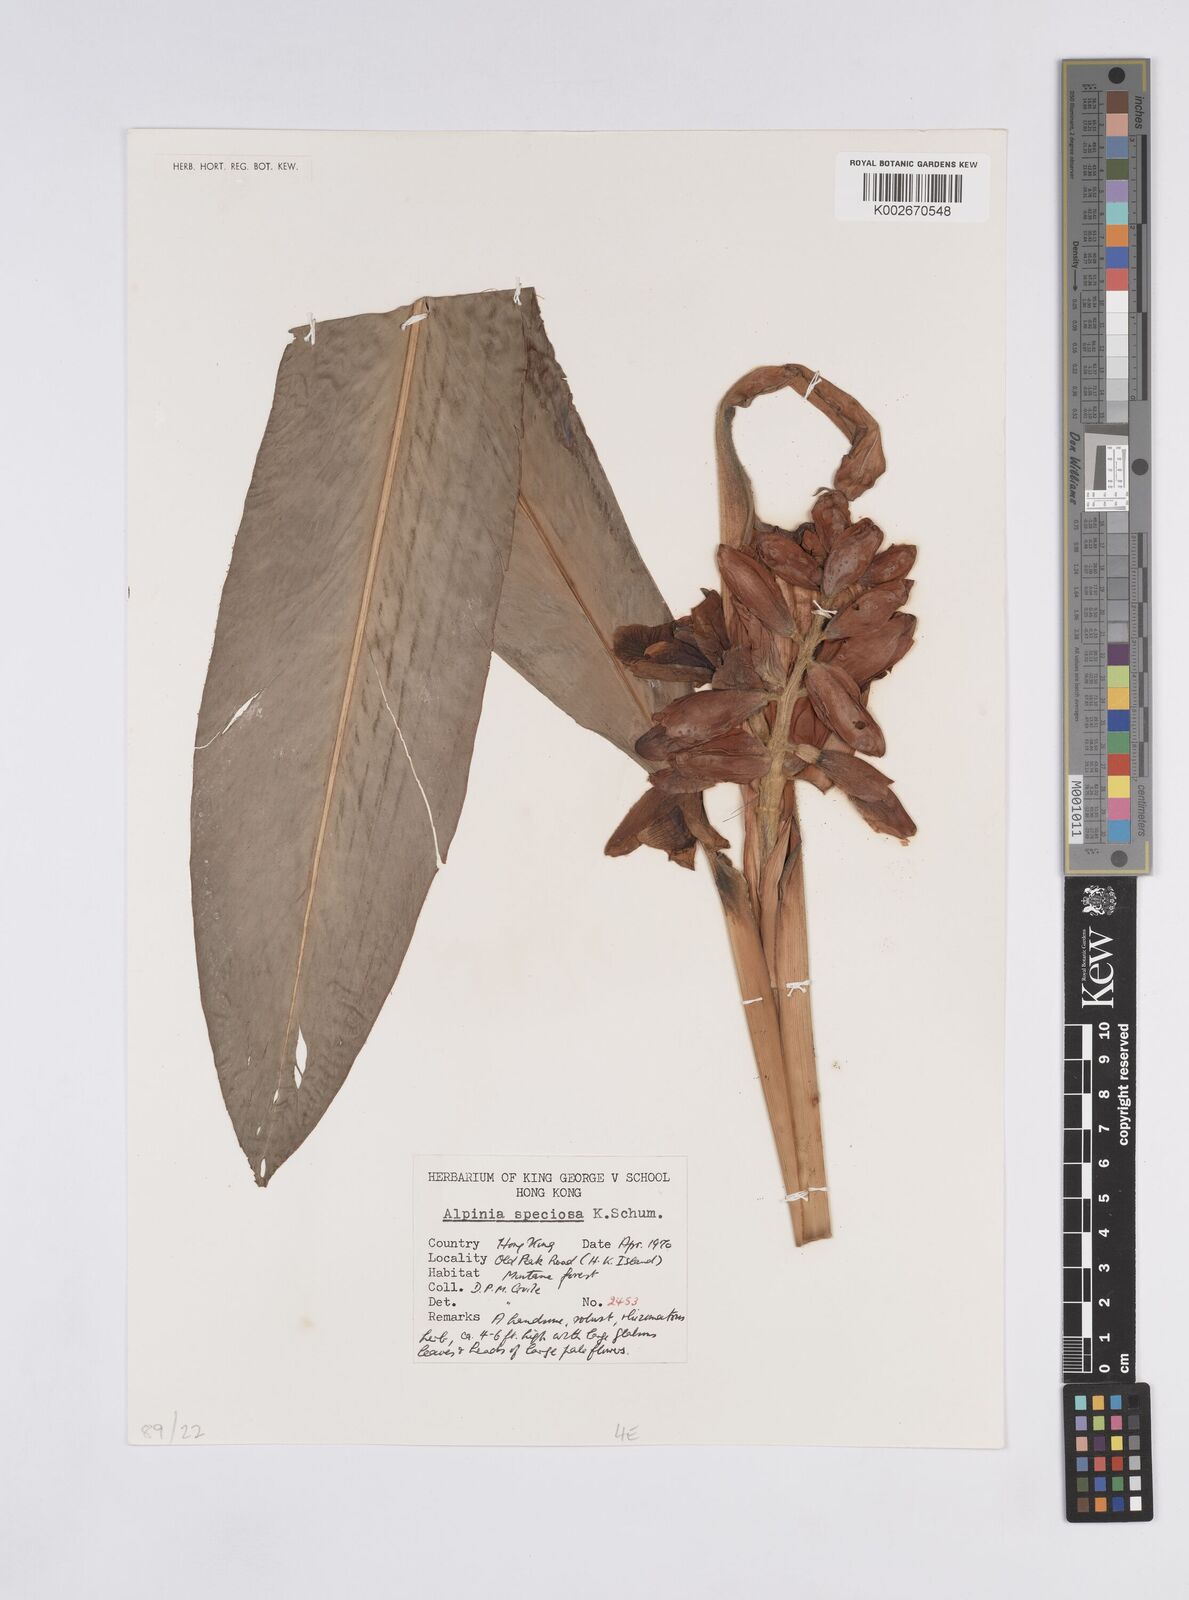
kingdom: Plantae
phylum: Tracheophyta
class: Liliopsida
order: Zingiberales
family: Zingiberaceae
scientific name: Zingiberaceae
